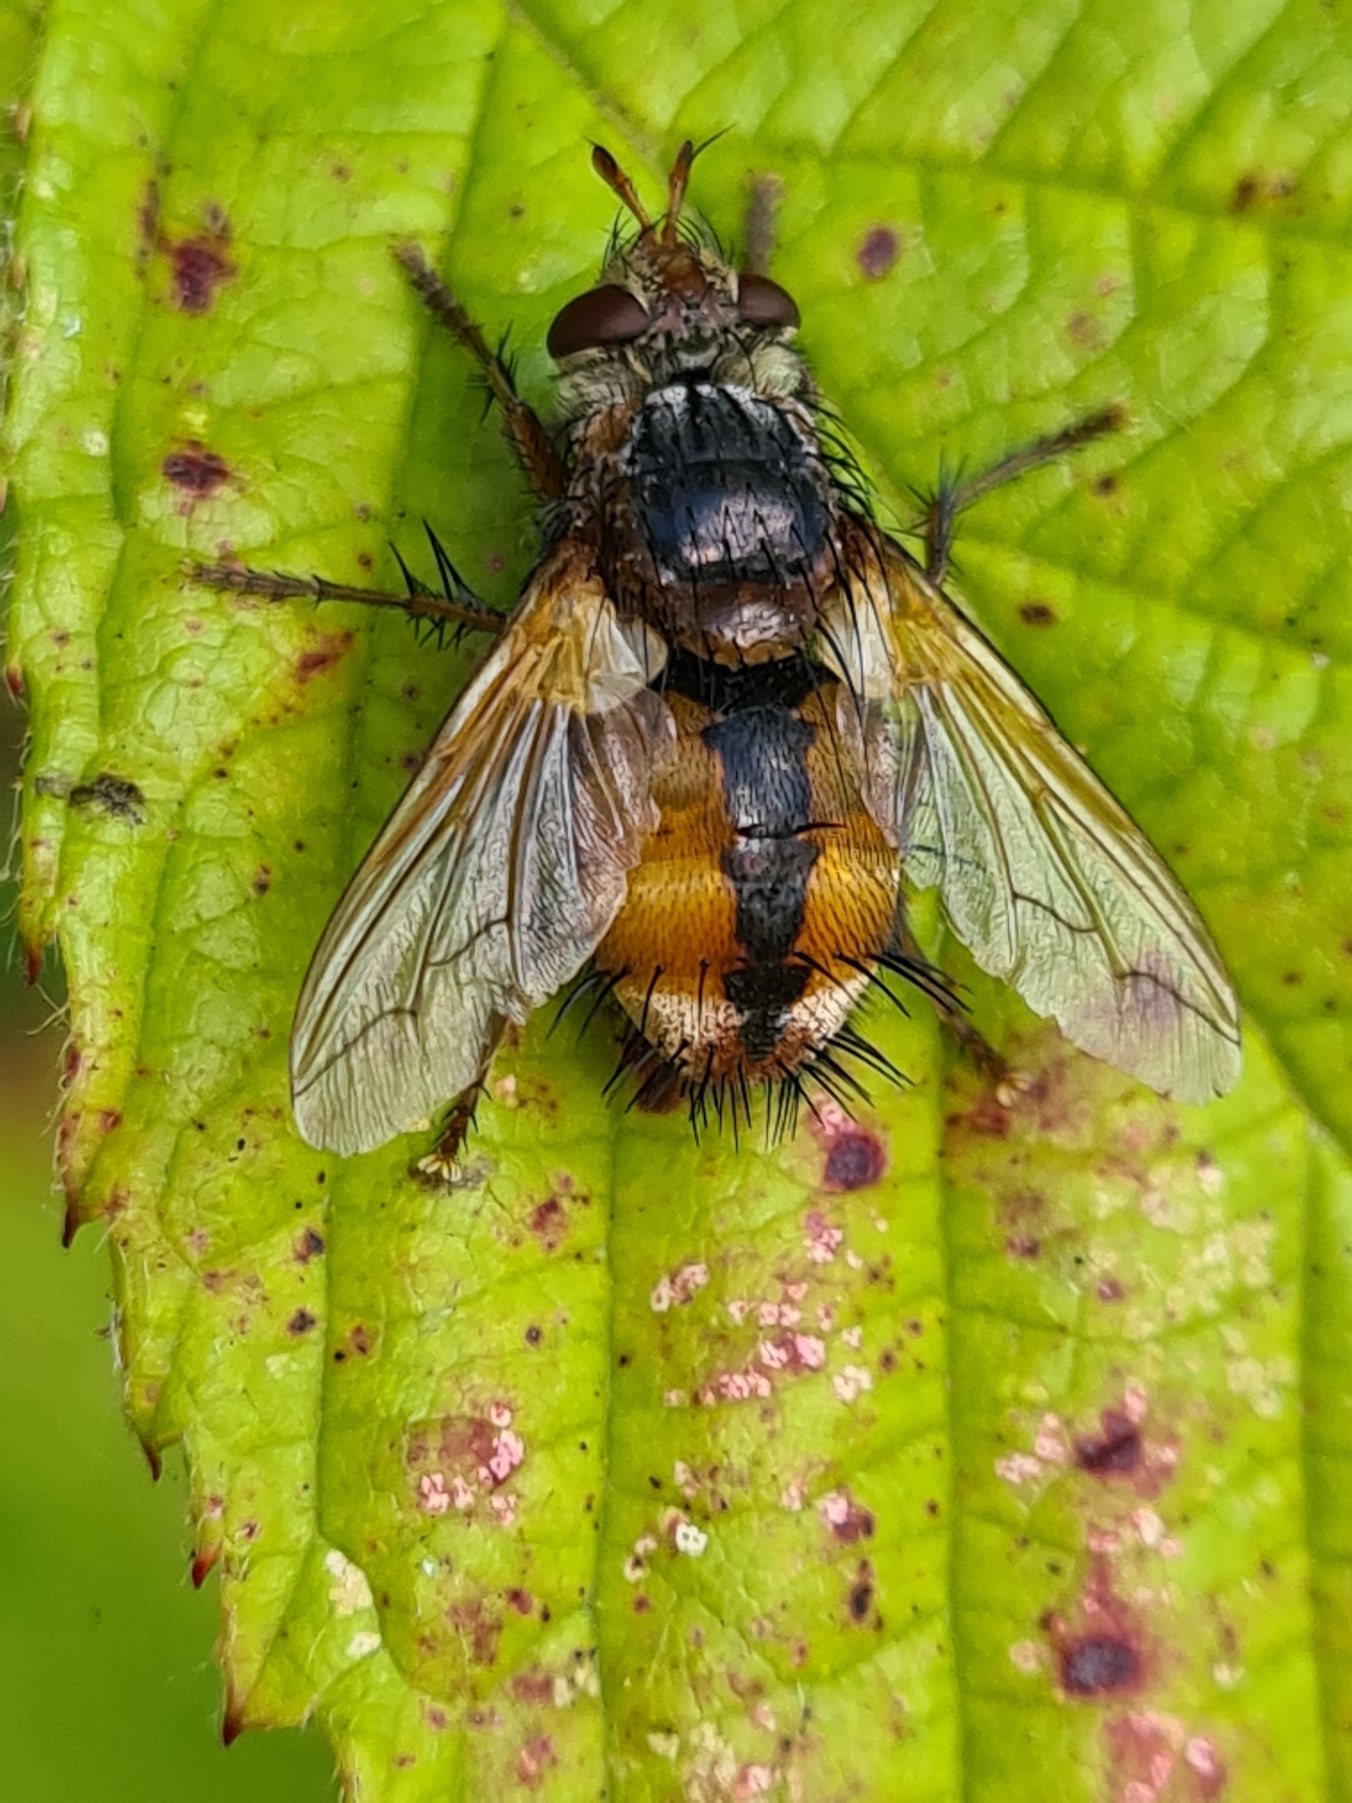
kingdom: Animalia
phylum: Arthropoda
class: Insecta
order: Diptera
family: Tachinidae
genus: Tachina
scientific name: Tachina fera
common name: Mellemfluen oskar
